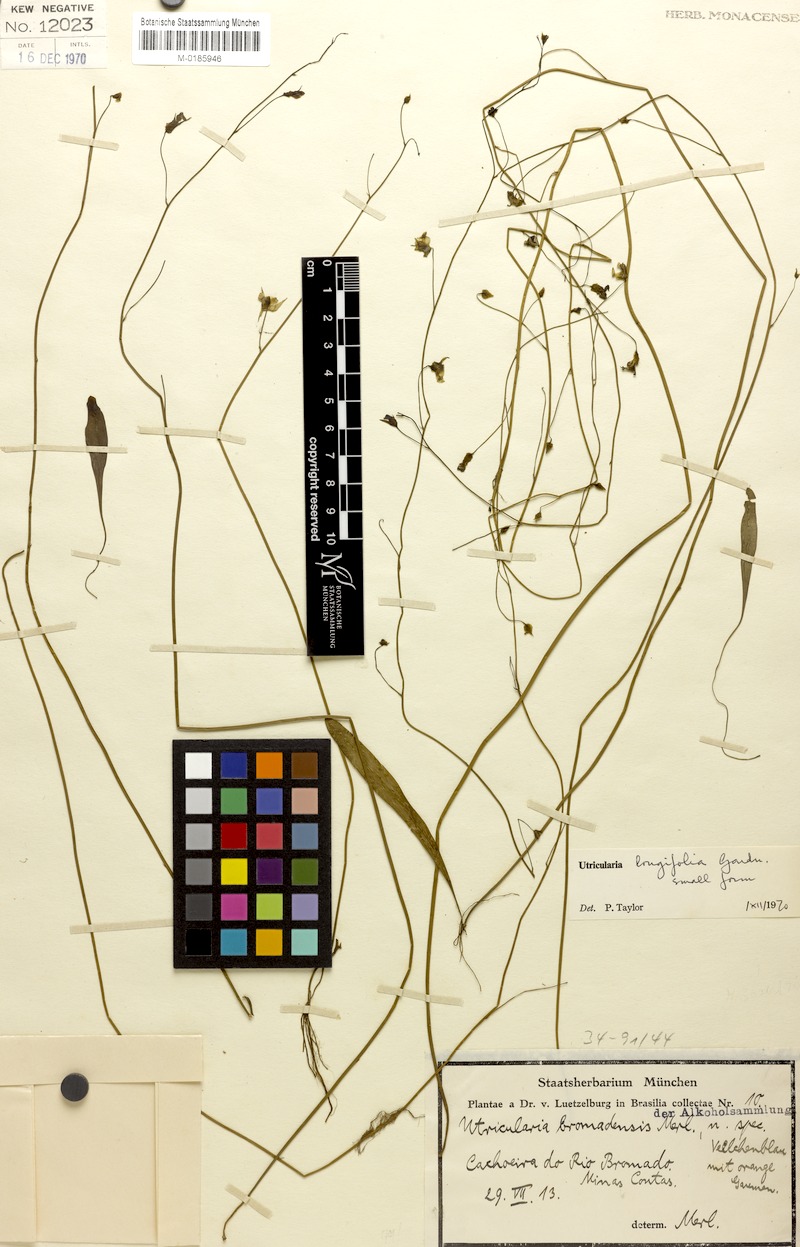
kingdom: Plantae
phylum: Tracheophyta
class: Magnoliopsida
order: Lamiales
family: Lentibulariaceae
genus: Utricularia
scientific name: Utricularia longifolia
